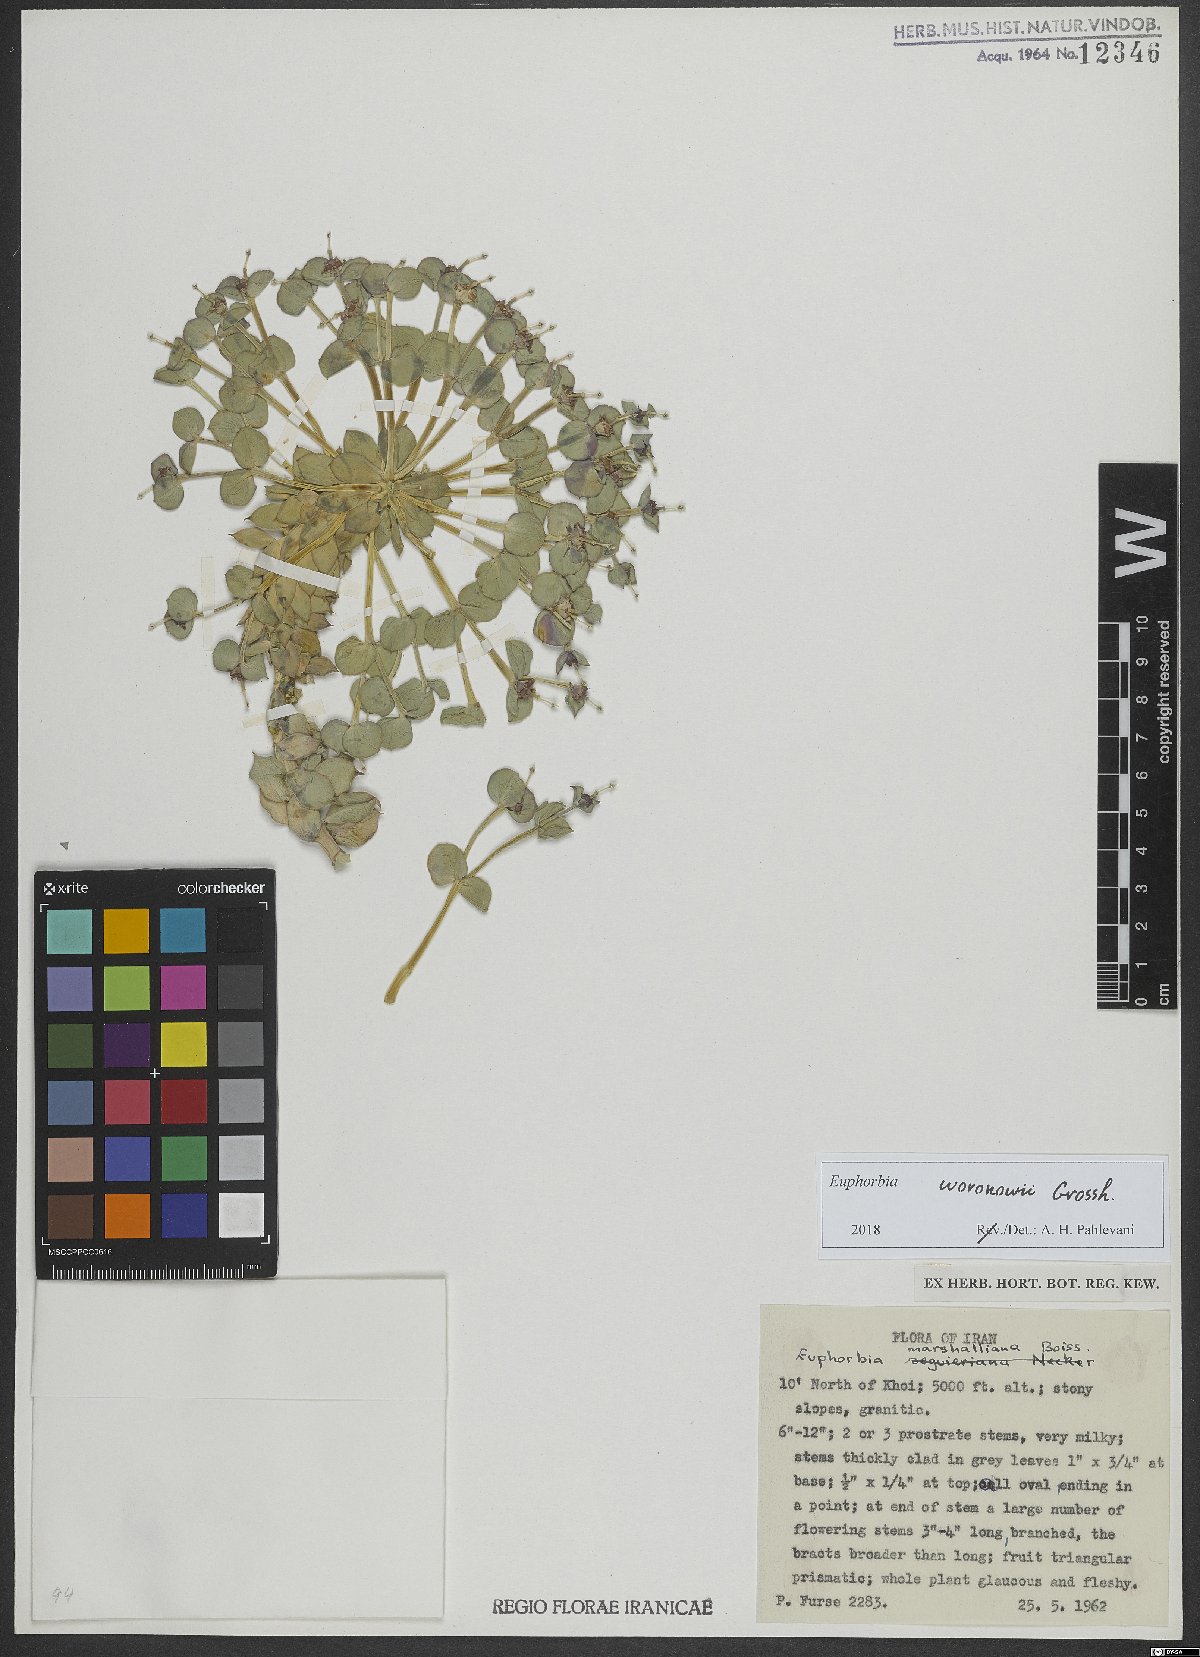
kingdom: Plantae
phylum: Tracheophyta
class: Magnoliopsida
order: Malpighiales
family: Euphorbiaceae
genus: Euphorbia
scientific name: Euphorbia marschalliana
